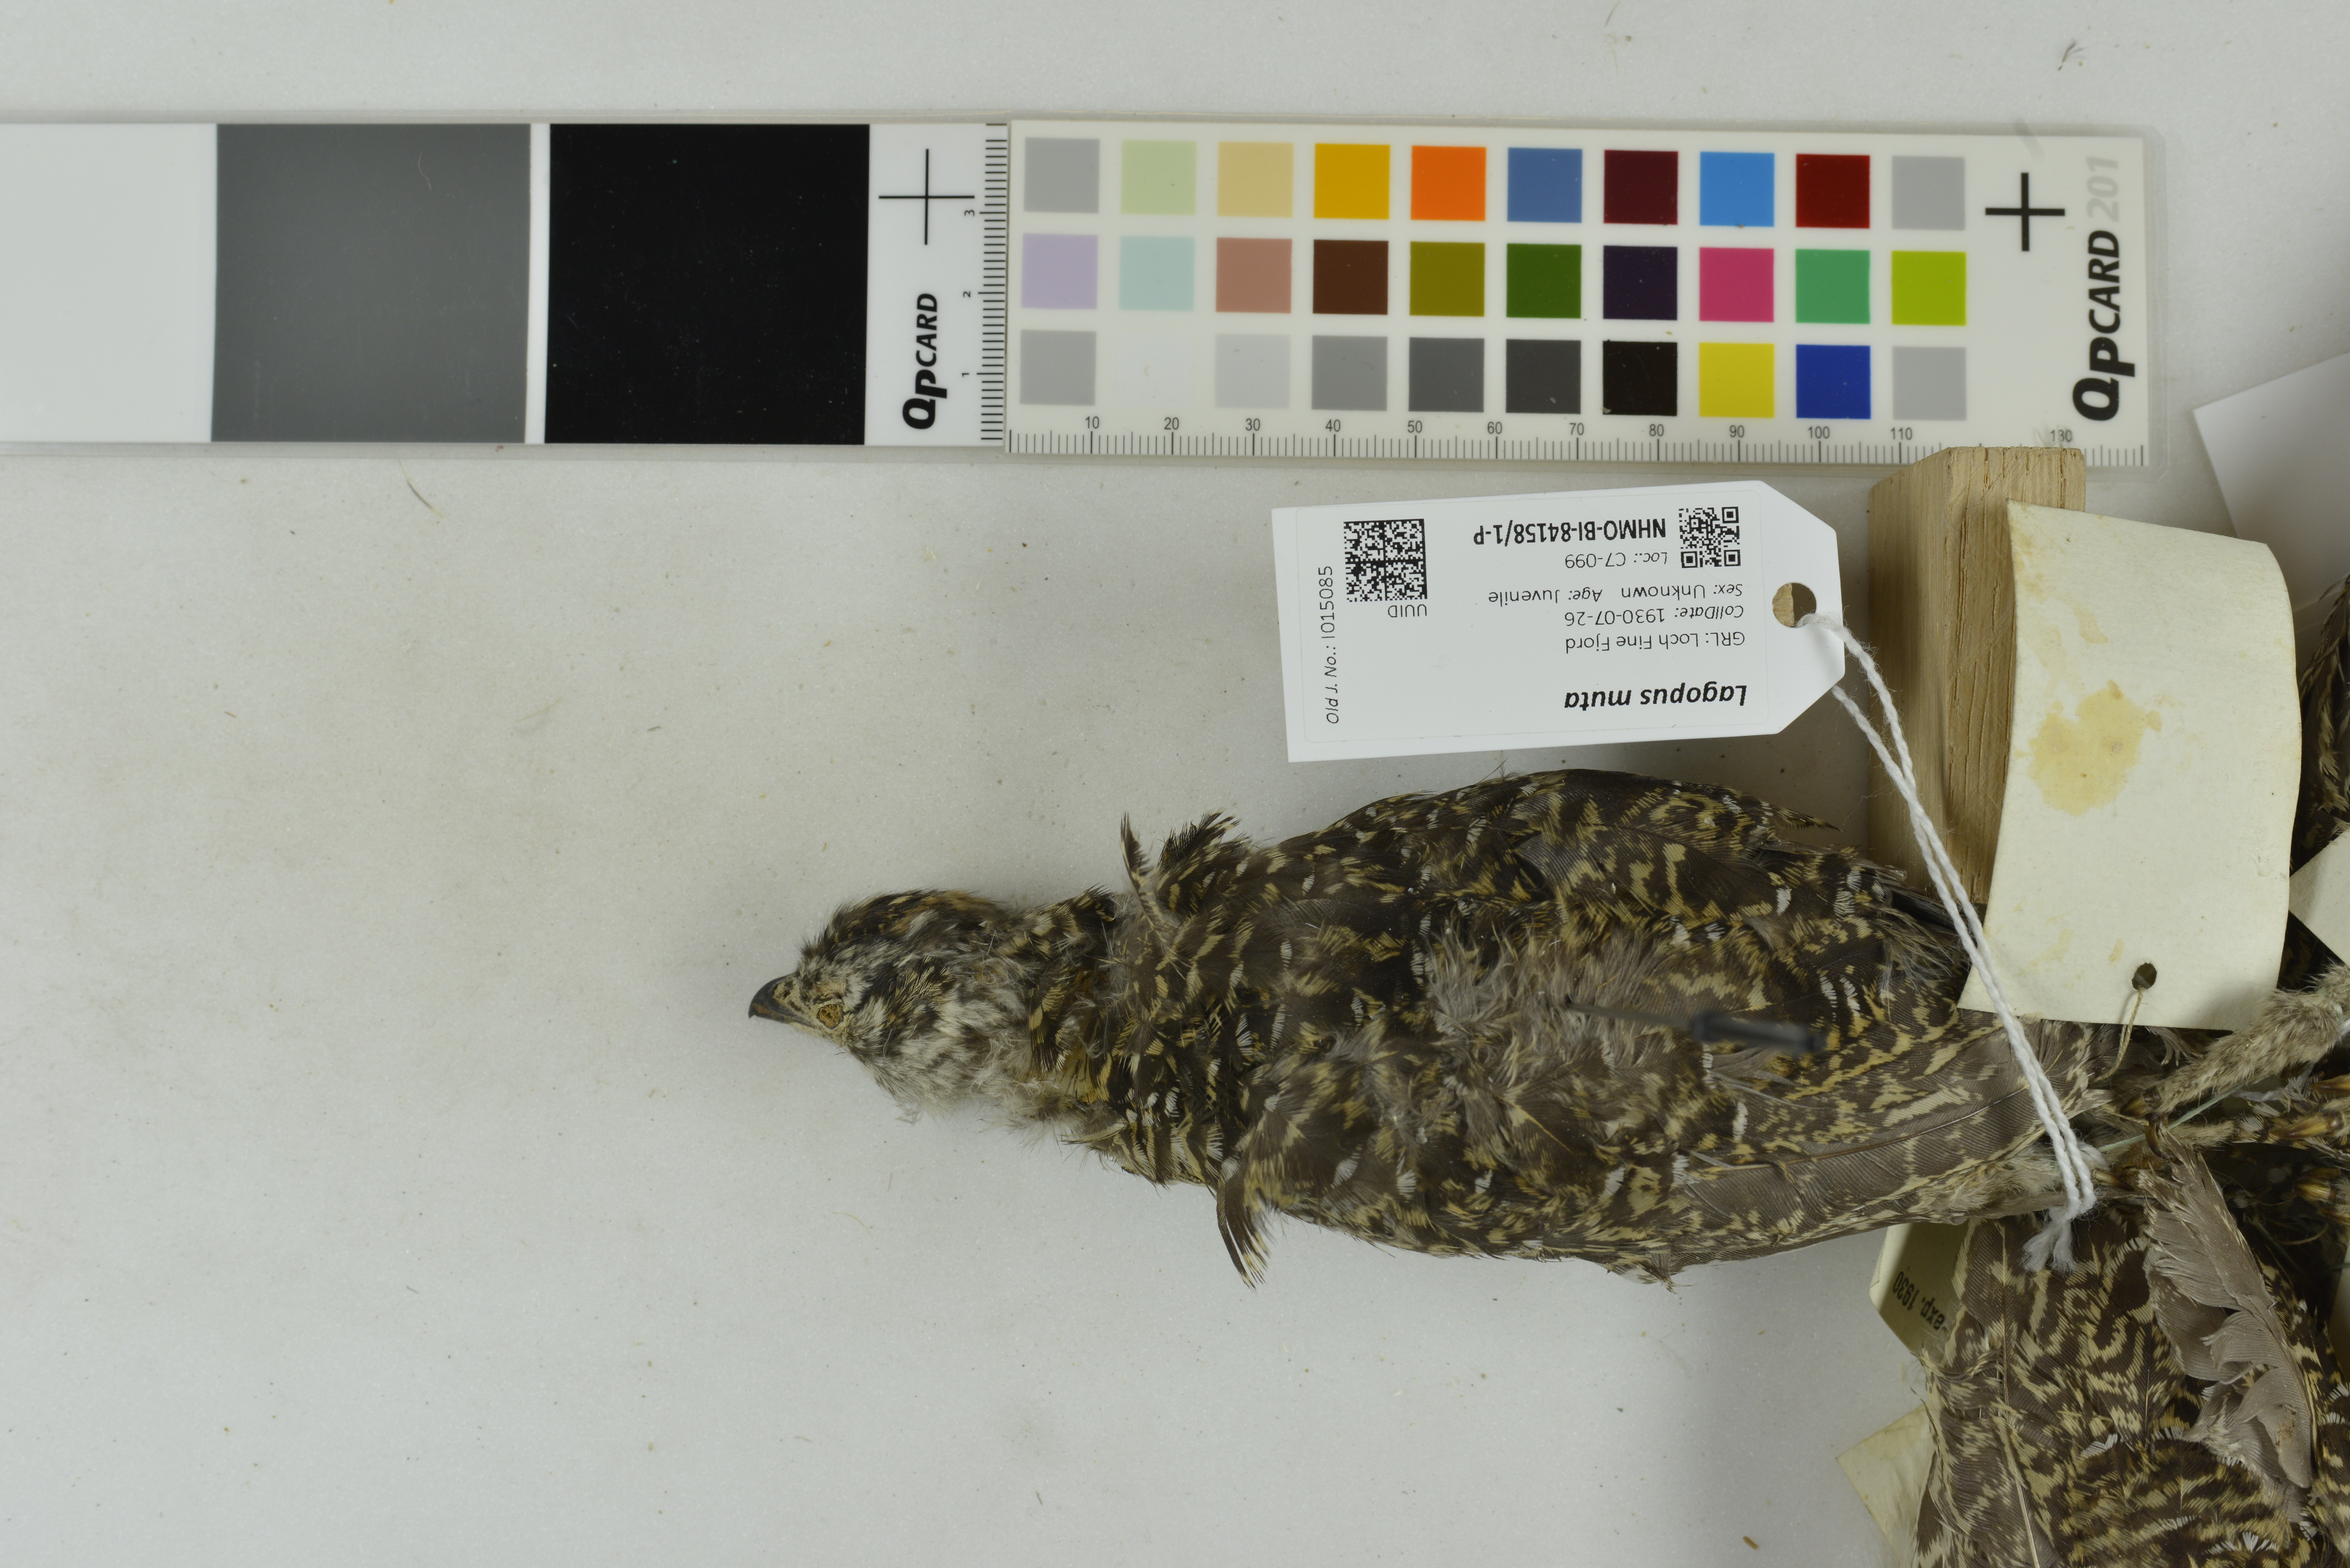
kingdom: Animalia
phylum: Chordata
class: Aves
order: Galliformes
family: Phasianidae
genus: Lagopus
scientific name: Lagopus muta
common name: Rock ptarmigan
